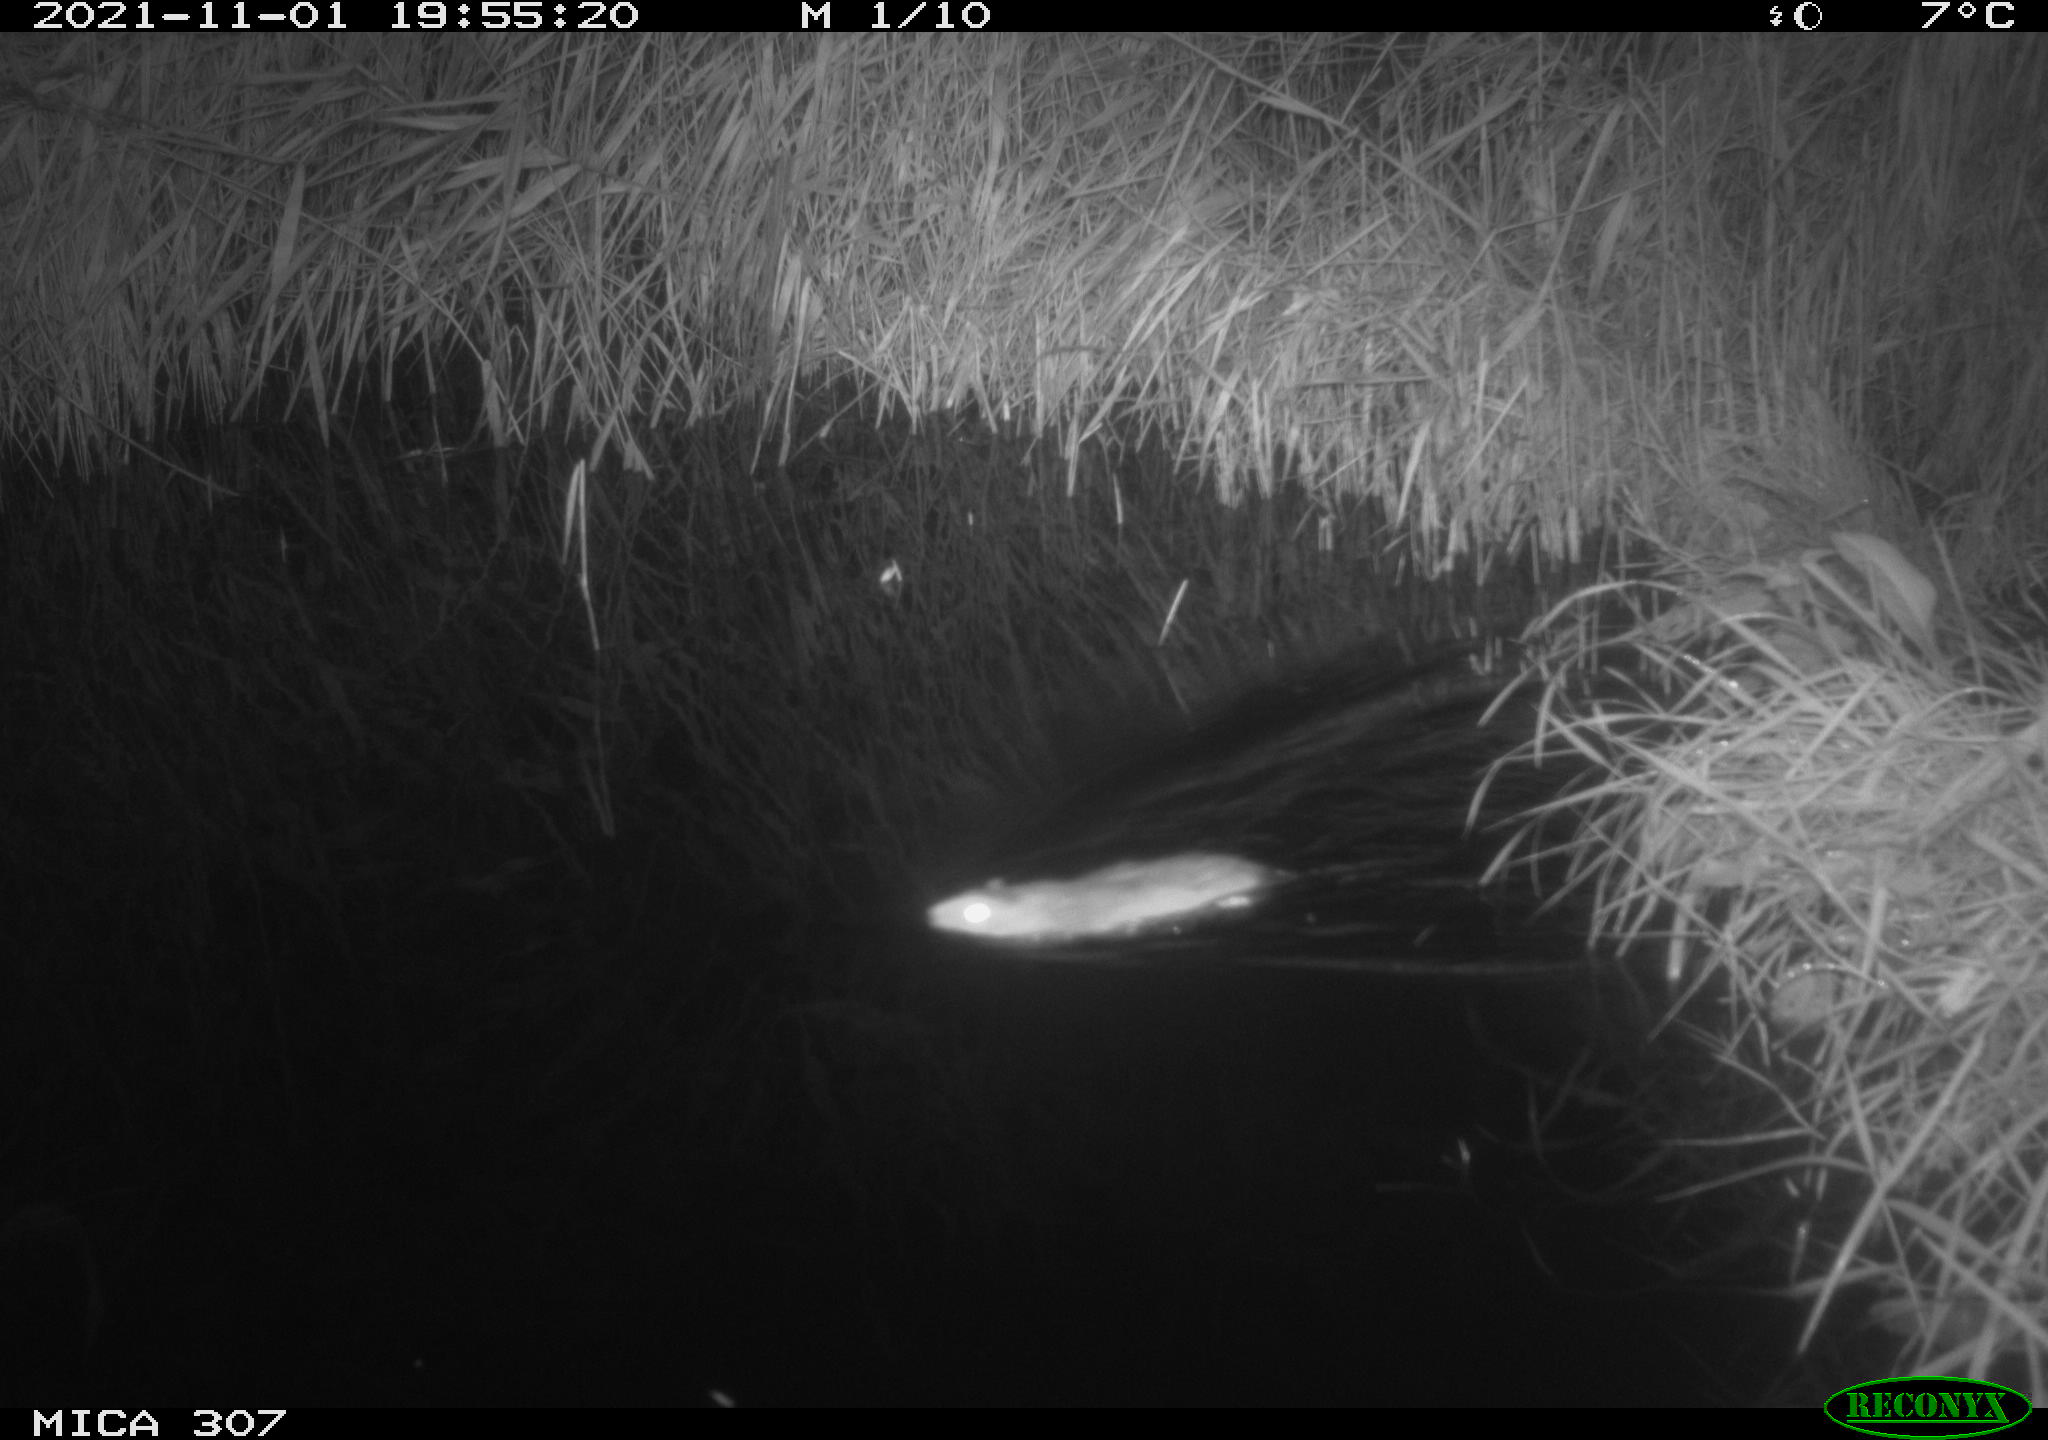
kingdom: Animalia
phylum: Chordata
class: Mammalia
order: Rodentia
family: Muridae
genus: Rattus
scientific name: Rattus norvegicus
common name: Brown rat
